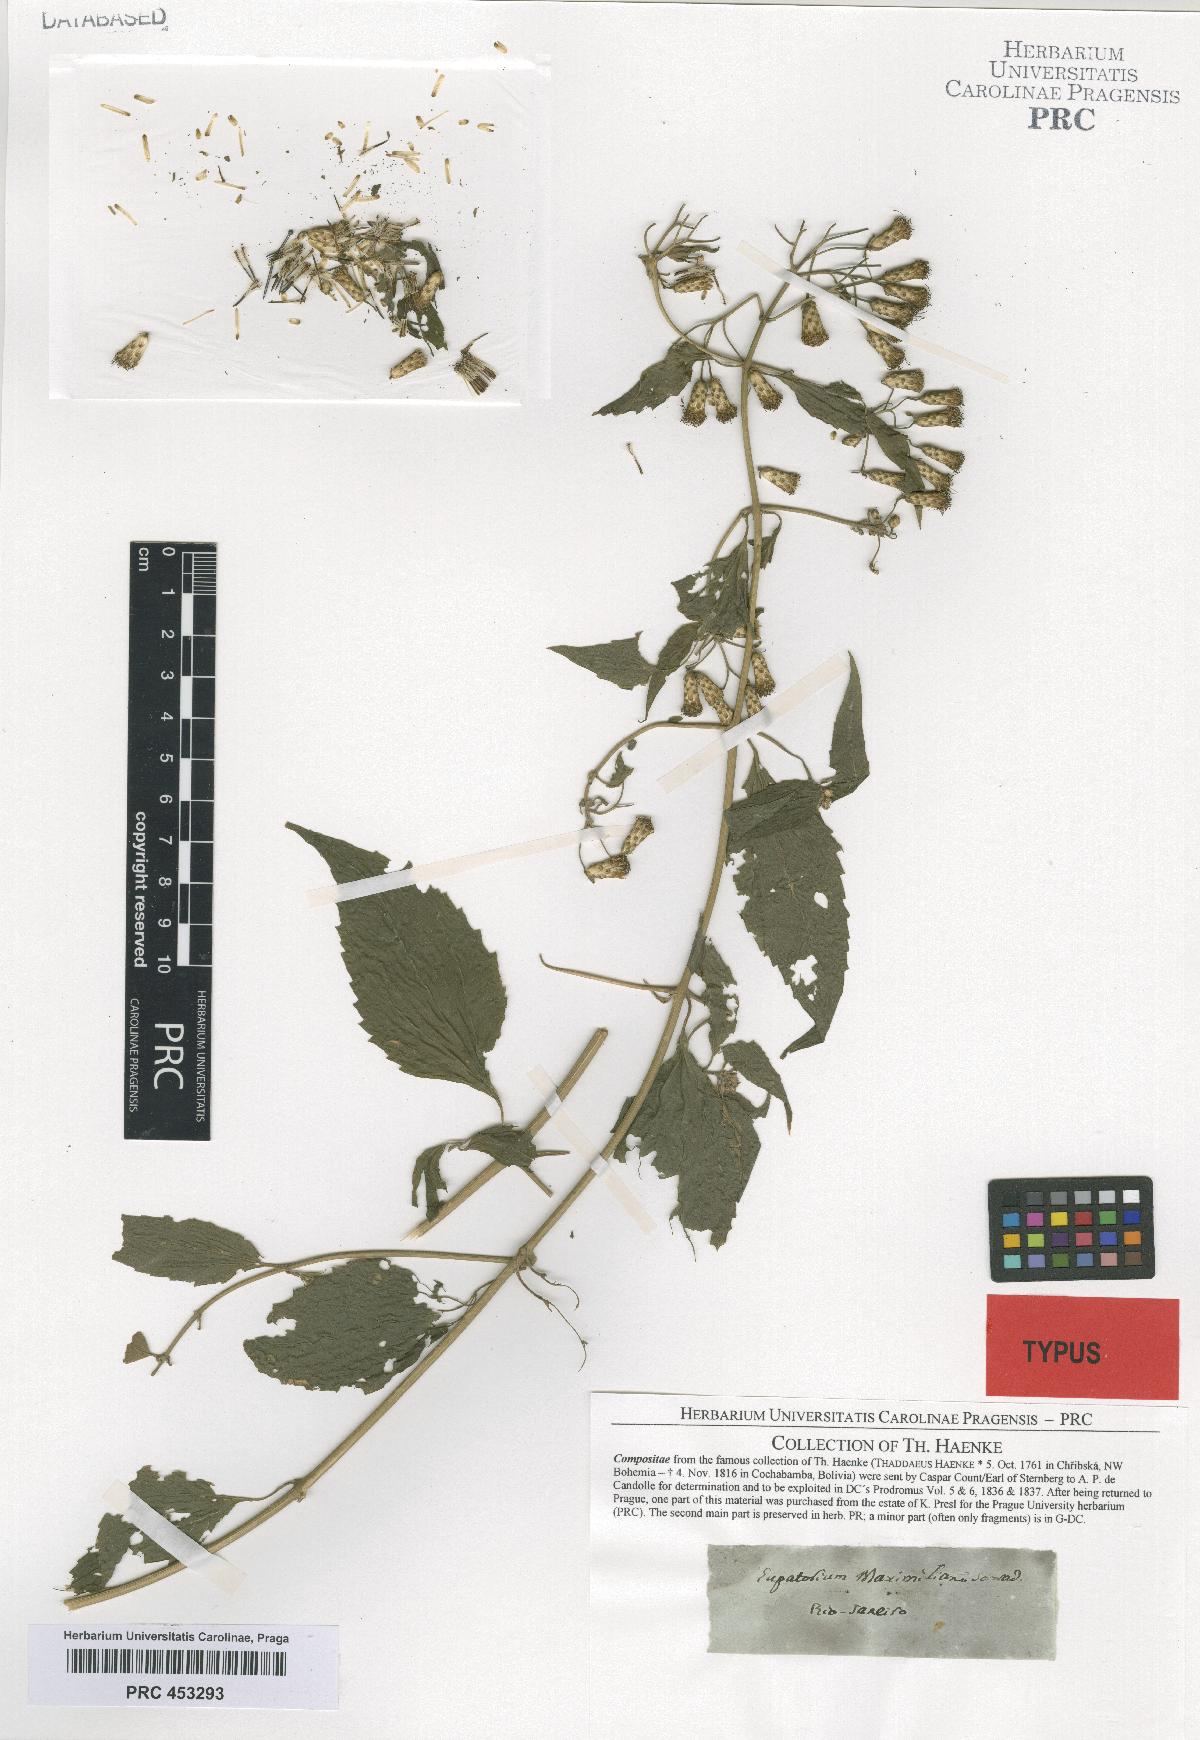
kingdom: Plantae
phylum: Tracheophyta
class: Magnoliopsida
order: Asterales
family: Asteraceae
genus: Chromolaena
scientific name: Chromolaena maximiliani
